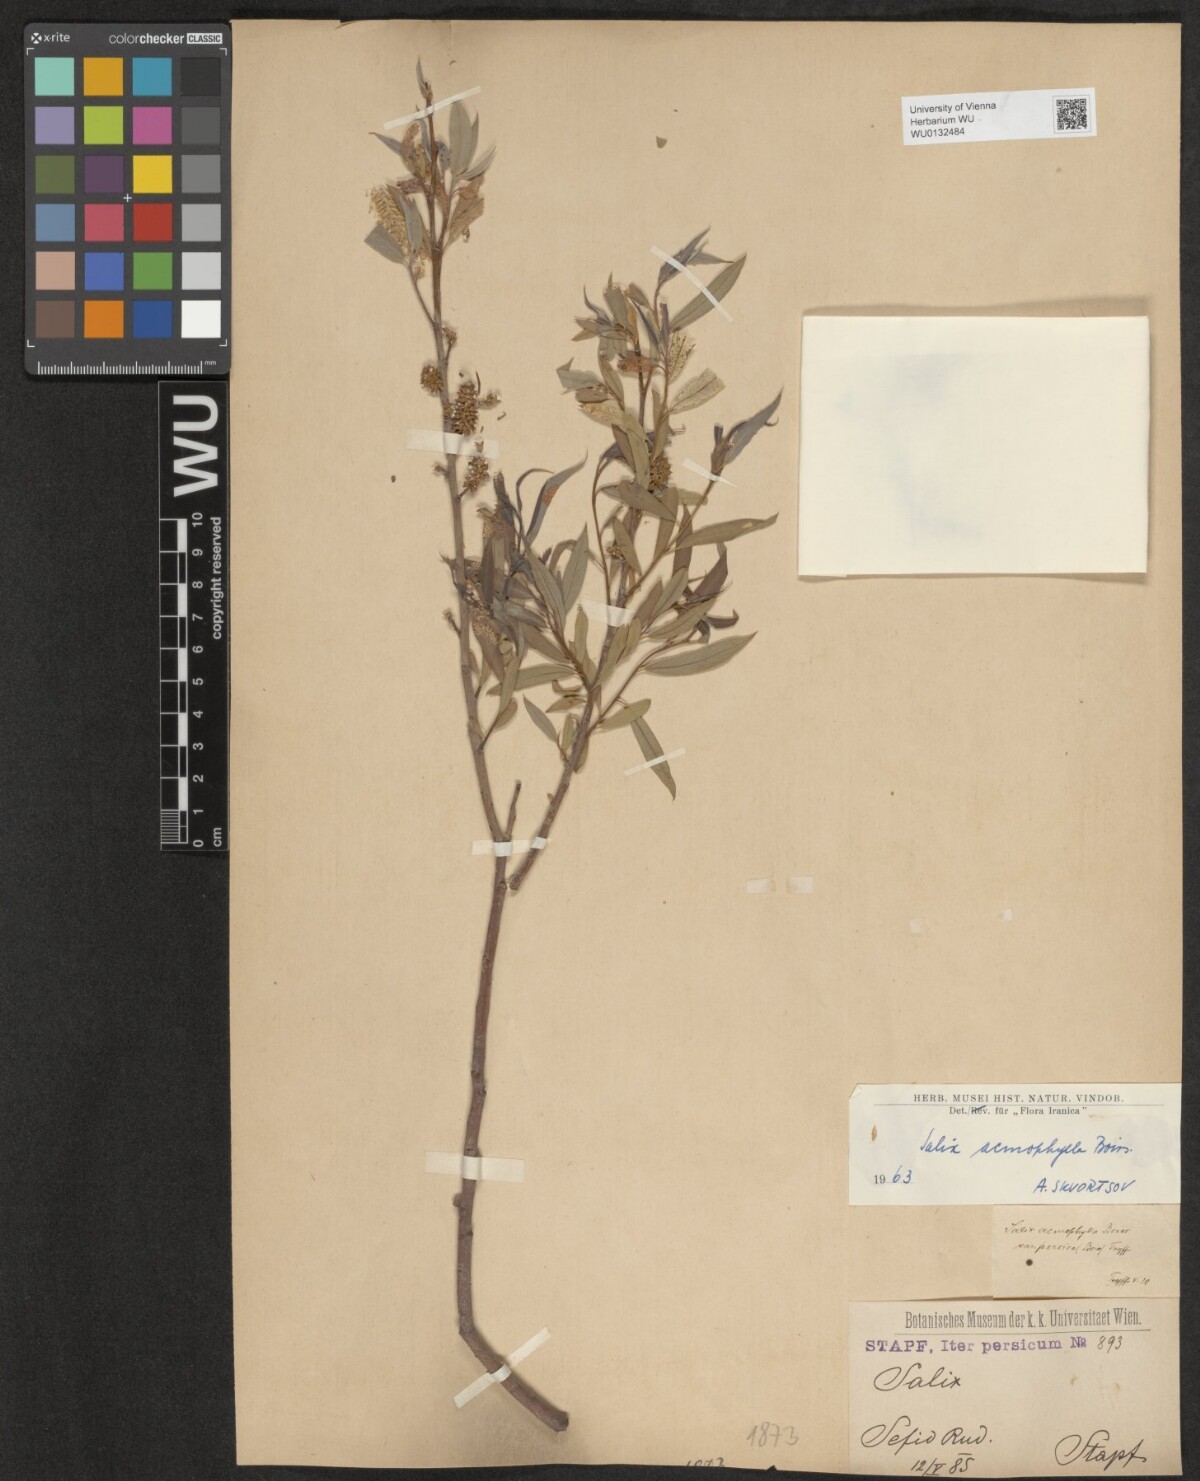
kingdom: Plantae
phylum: Tracheophyta
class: Magnoliopsida
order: Malpighiales
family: Salicaceae
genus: Salix
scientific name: Salix acmophylla
